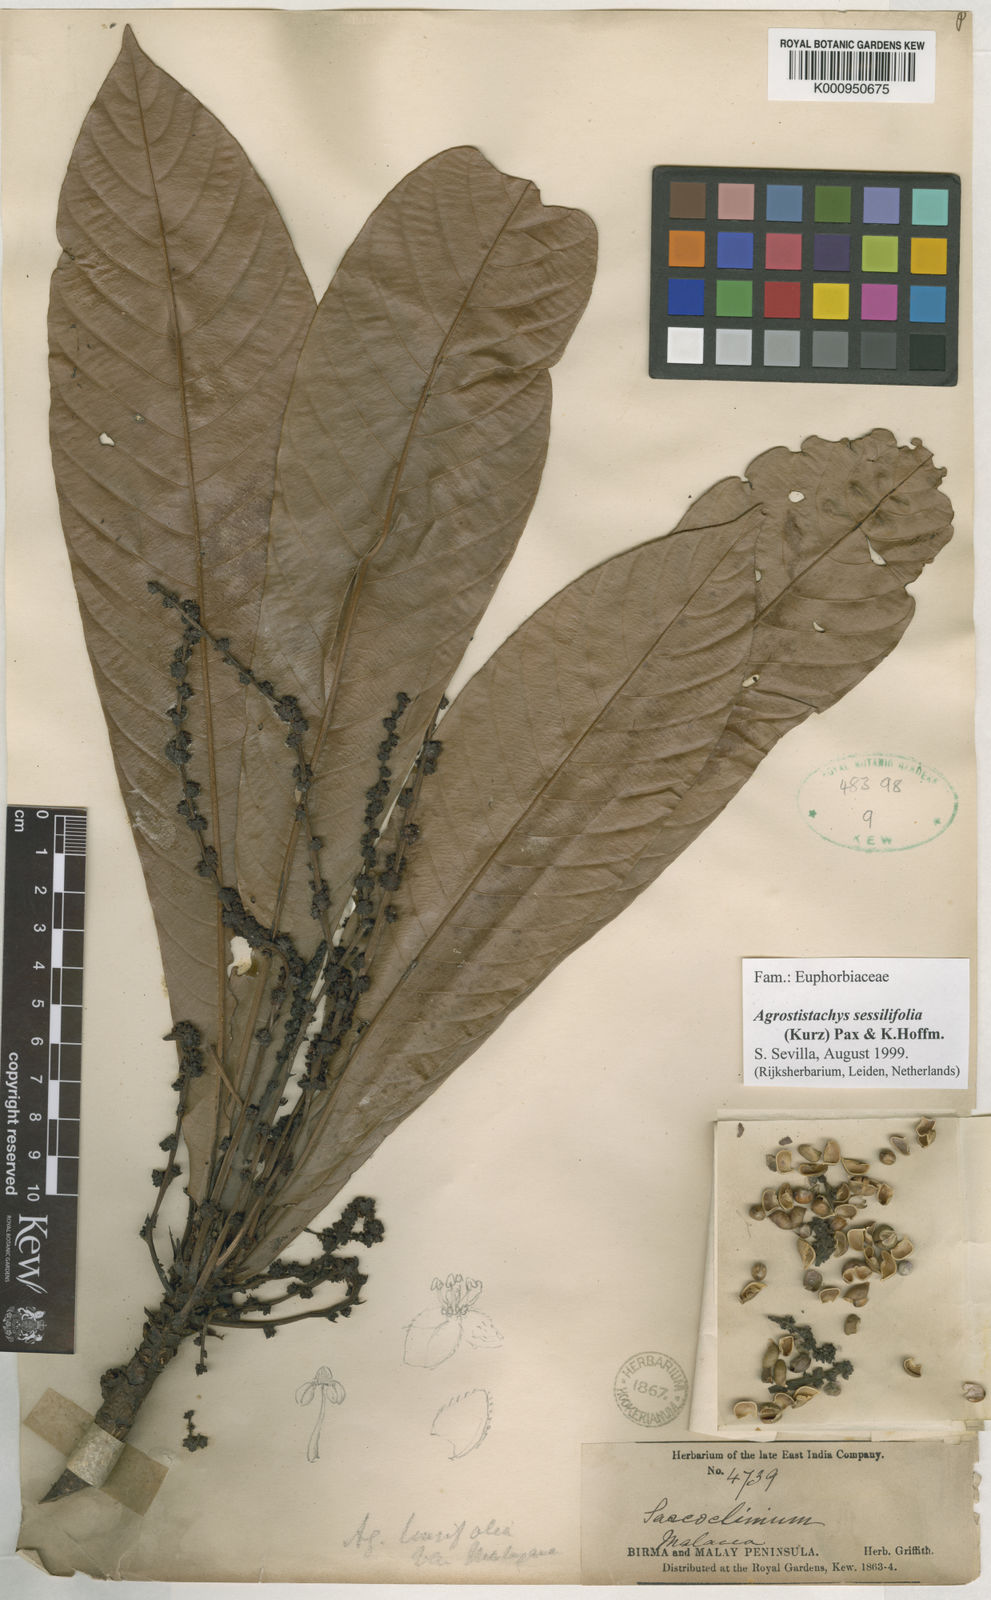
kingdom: Plantae
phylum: Tracheophyta
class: Magnoliopsida
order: Malpighiales
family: Euphorbiaceae
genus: Agrostistachys
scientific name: Agrostistachys sessilifolia
